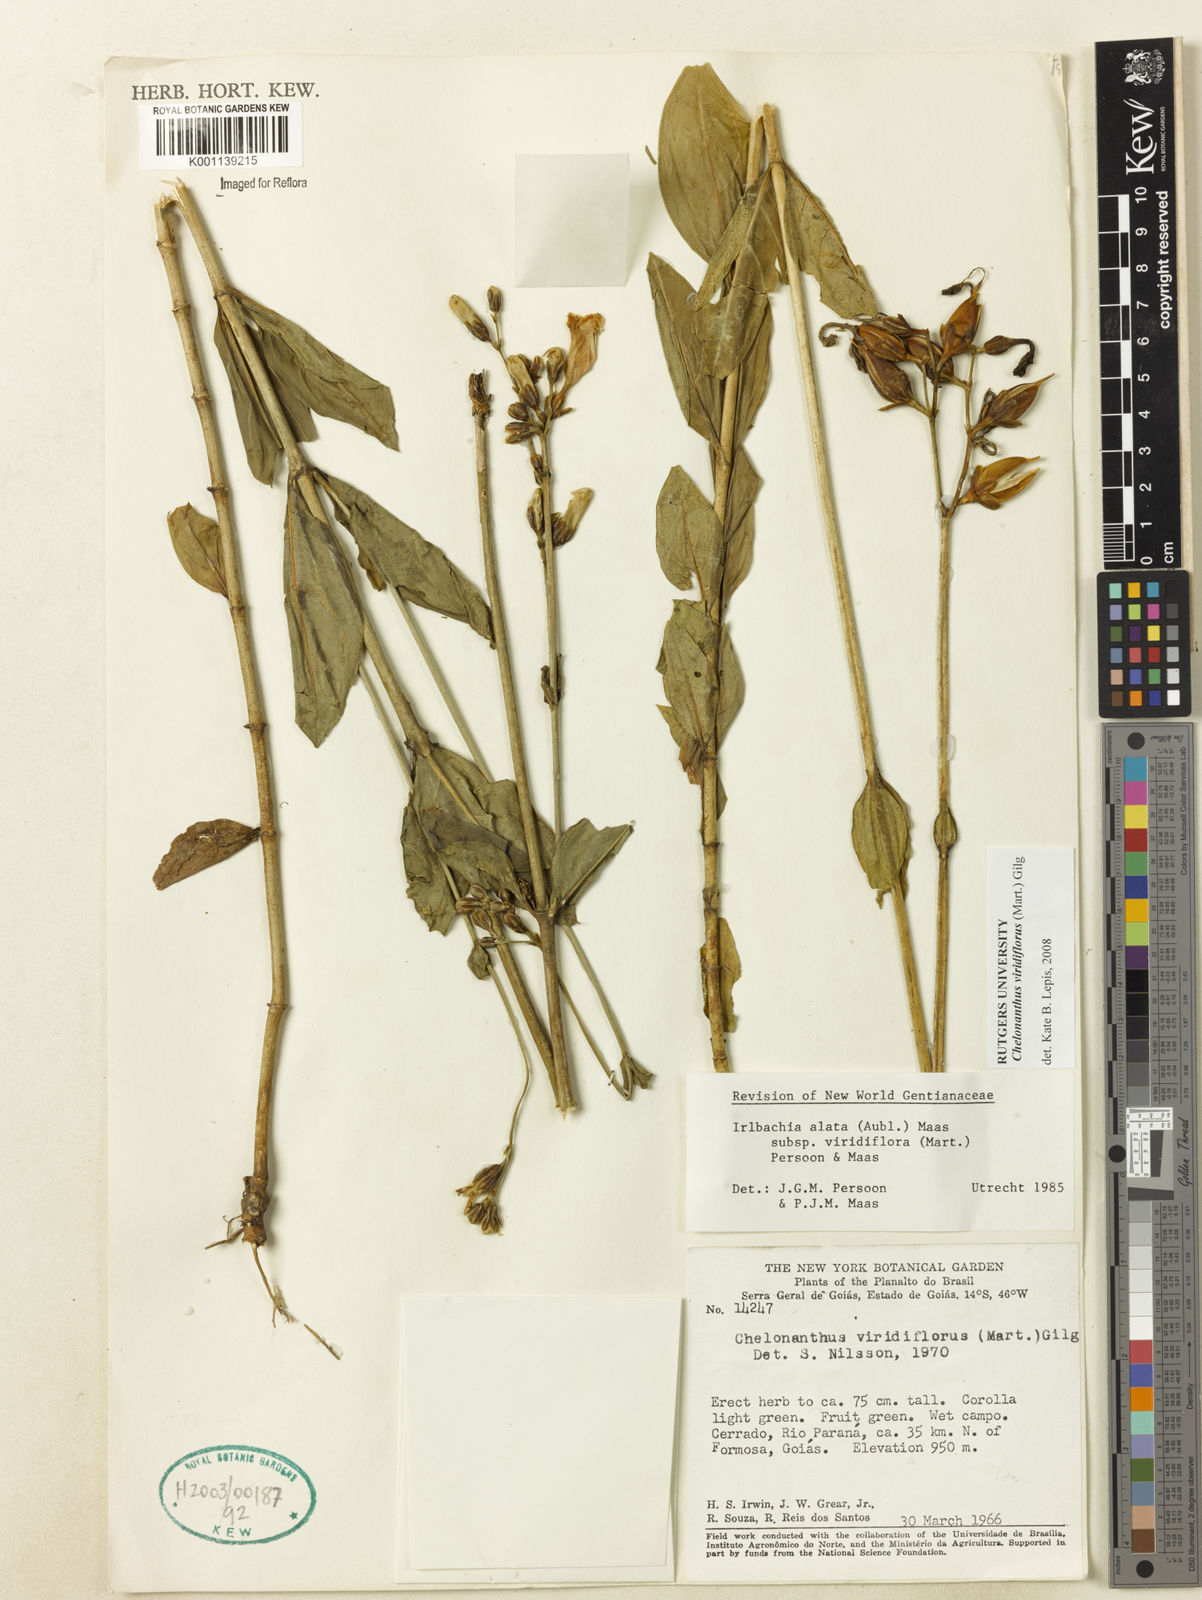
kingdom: Plantae
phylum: Tracheophyta
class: Magnoliopsida
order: Gentianales
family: Gentianaceae
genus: Chelonanthus
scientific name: Chelonanthus viridiflorus
